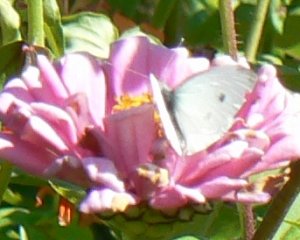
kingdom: Animalia
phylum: Arthropoda
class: Insecta
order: Lepidoptera
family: Pieridae
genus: Pieris
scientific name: Pieris rapae
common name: Cabbage White
